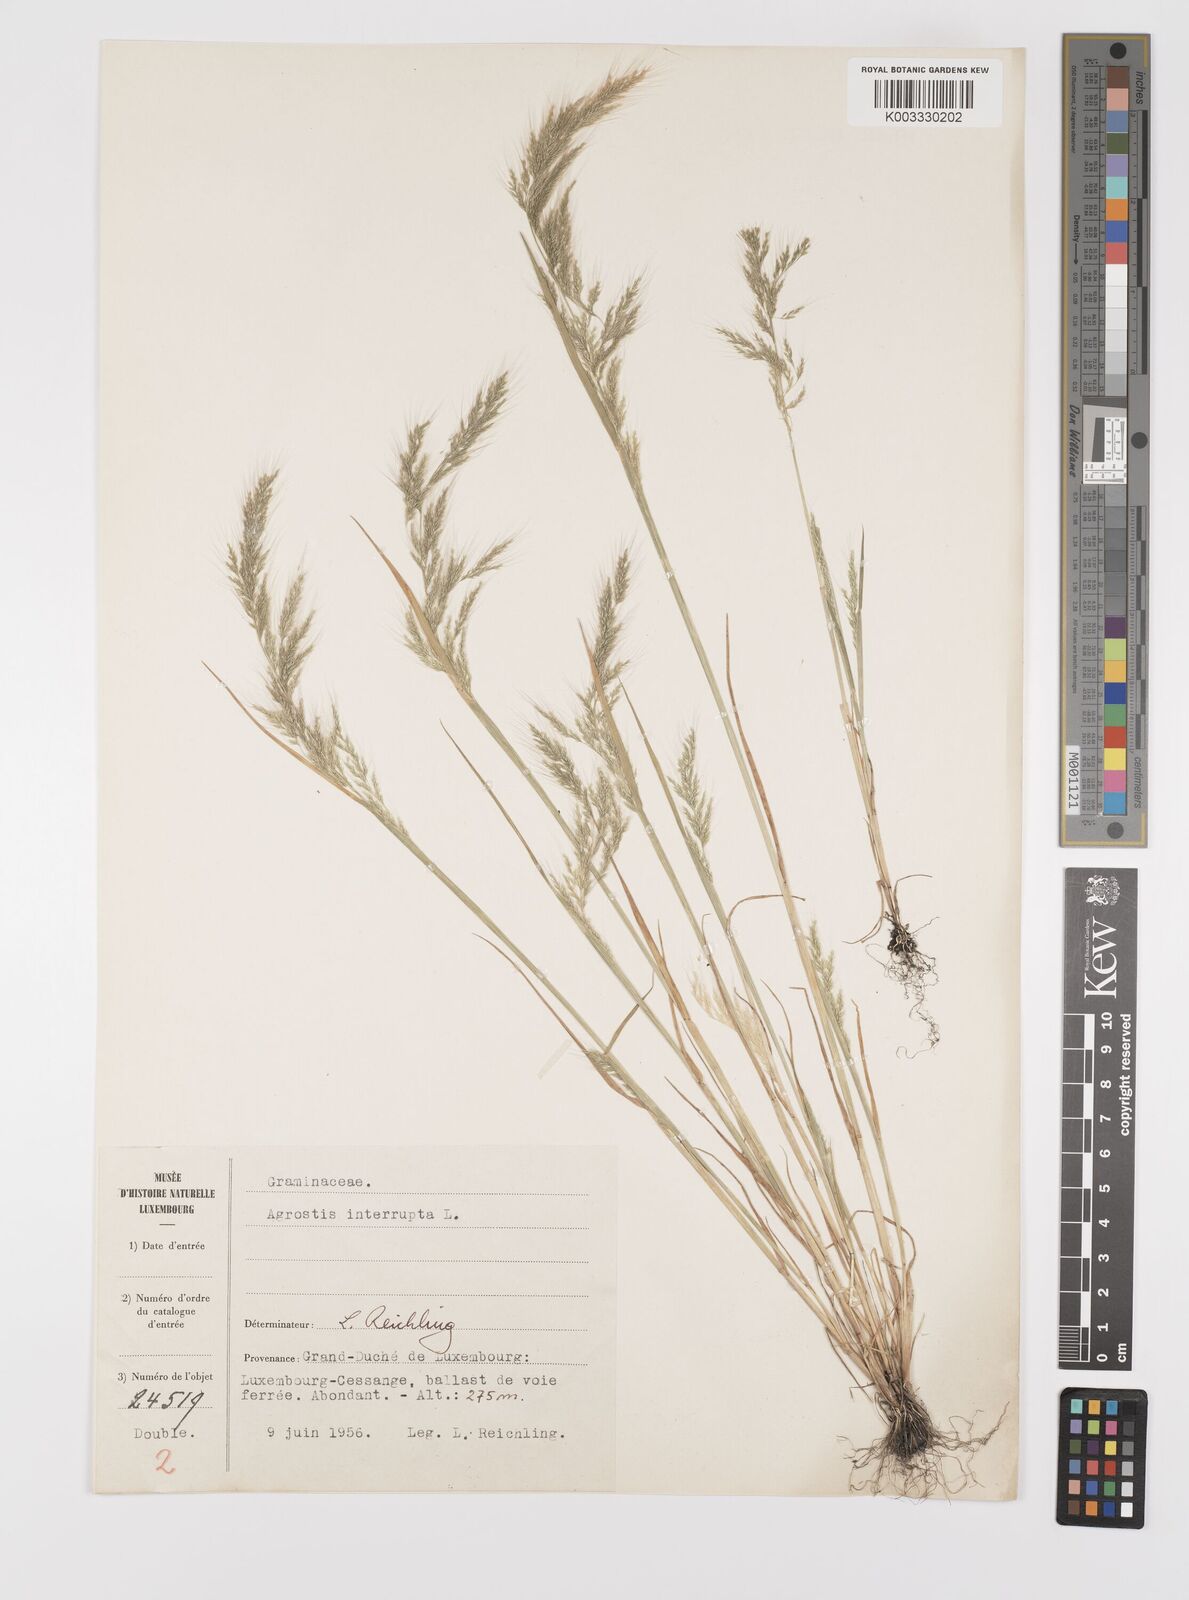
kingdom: Plantae
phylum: Tracheophyta
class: Liliopsida
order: Poales
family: Poaceae
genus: Apera
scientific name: Apera interrupta
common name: Dense silky-bent
